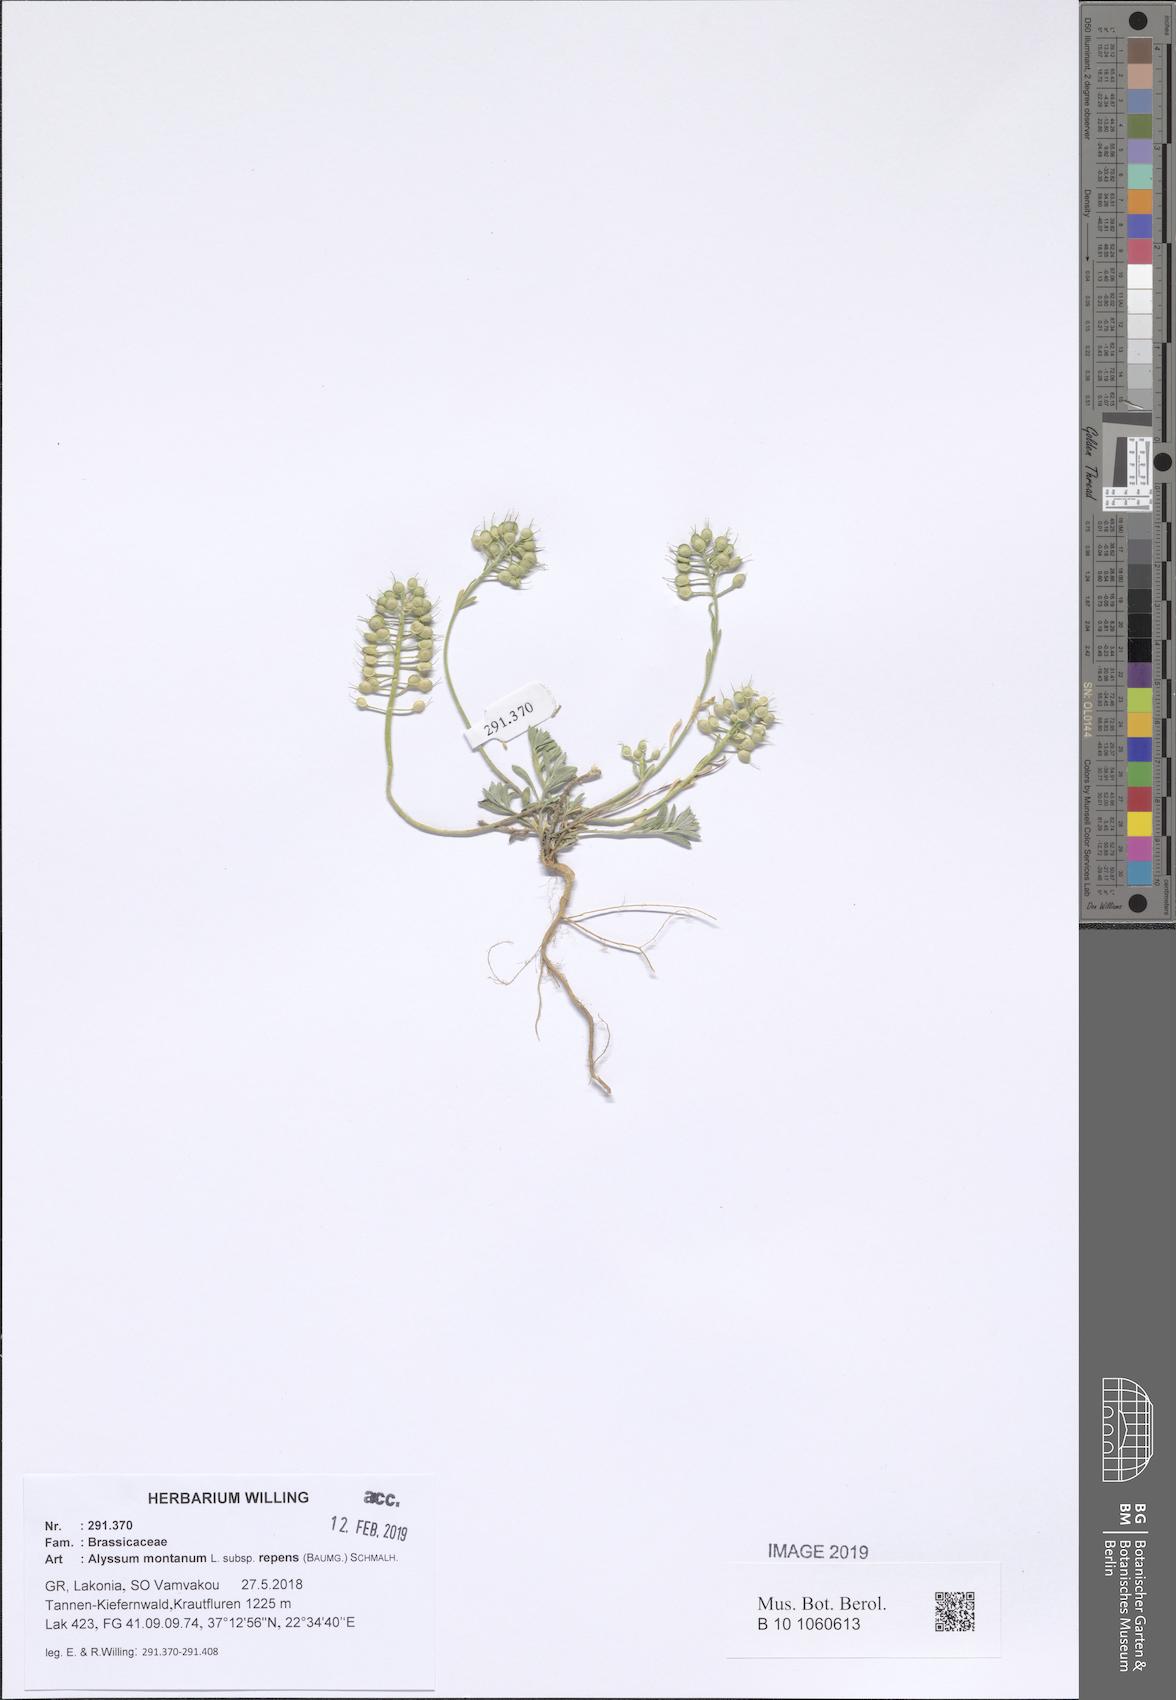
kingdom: Plantae
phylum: Tracheophyta
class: Magnoliopsida
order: Brassicales
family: Brassicaceae
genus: Alyssum
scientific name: Alyssum trichostachyum
